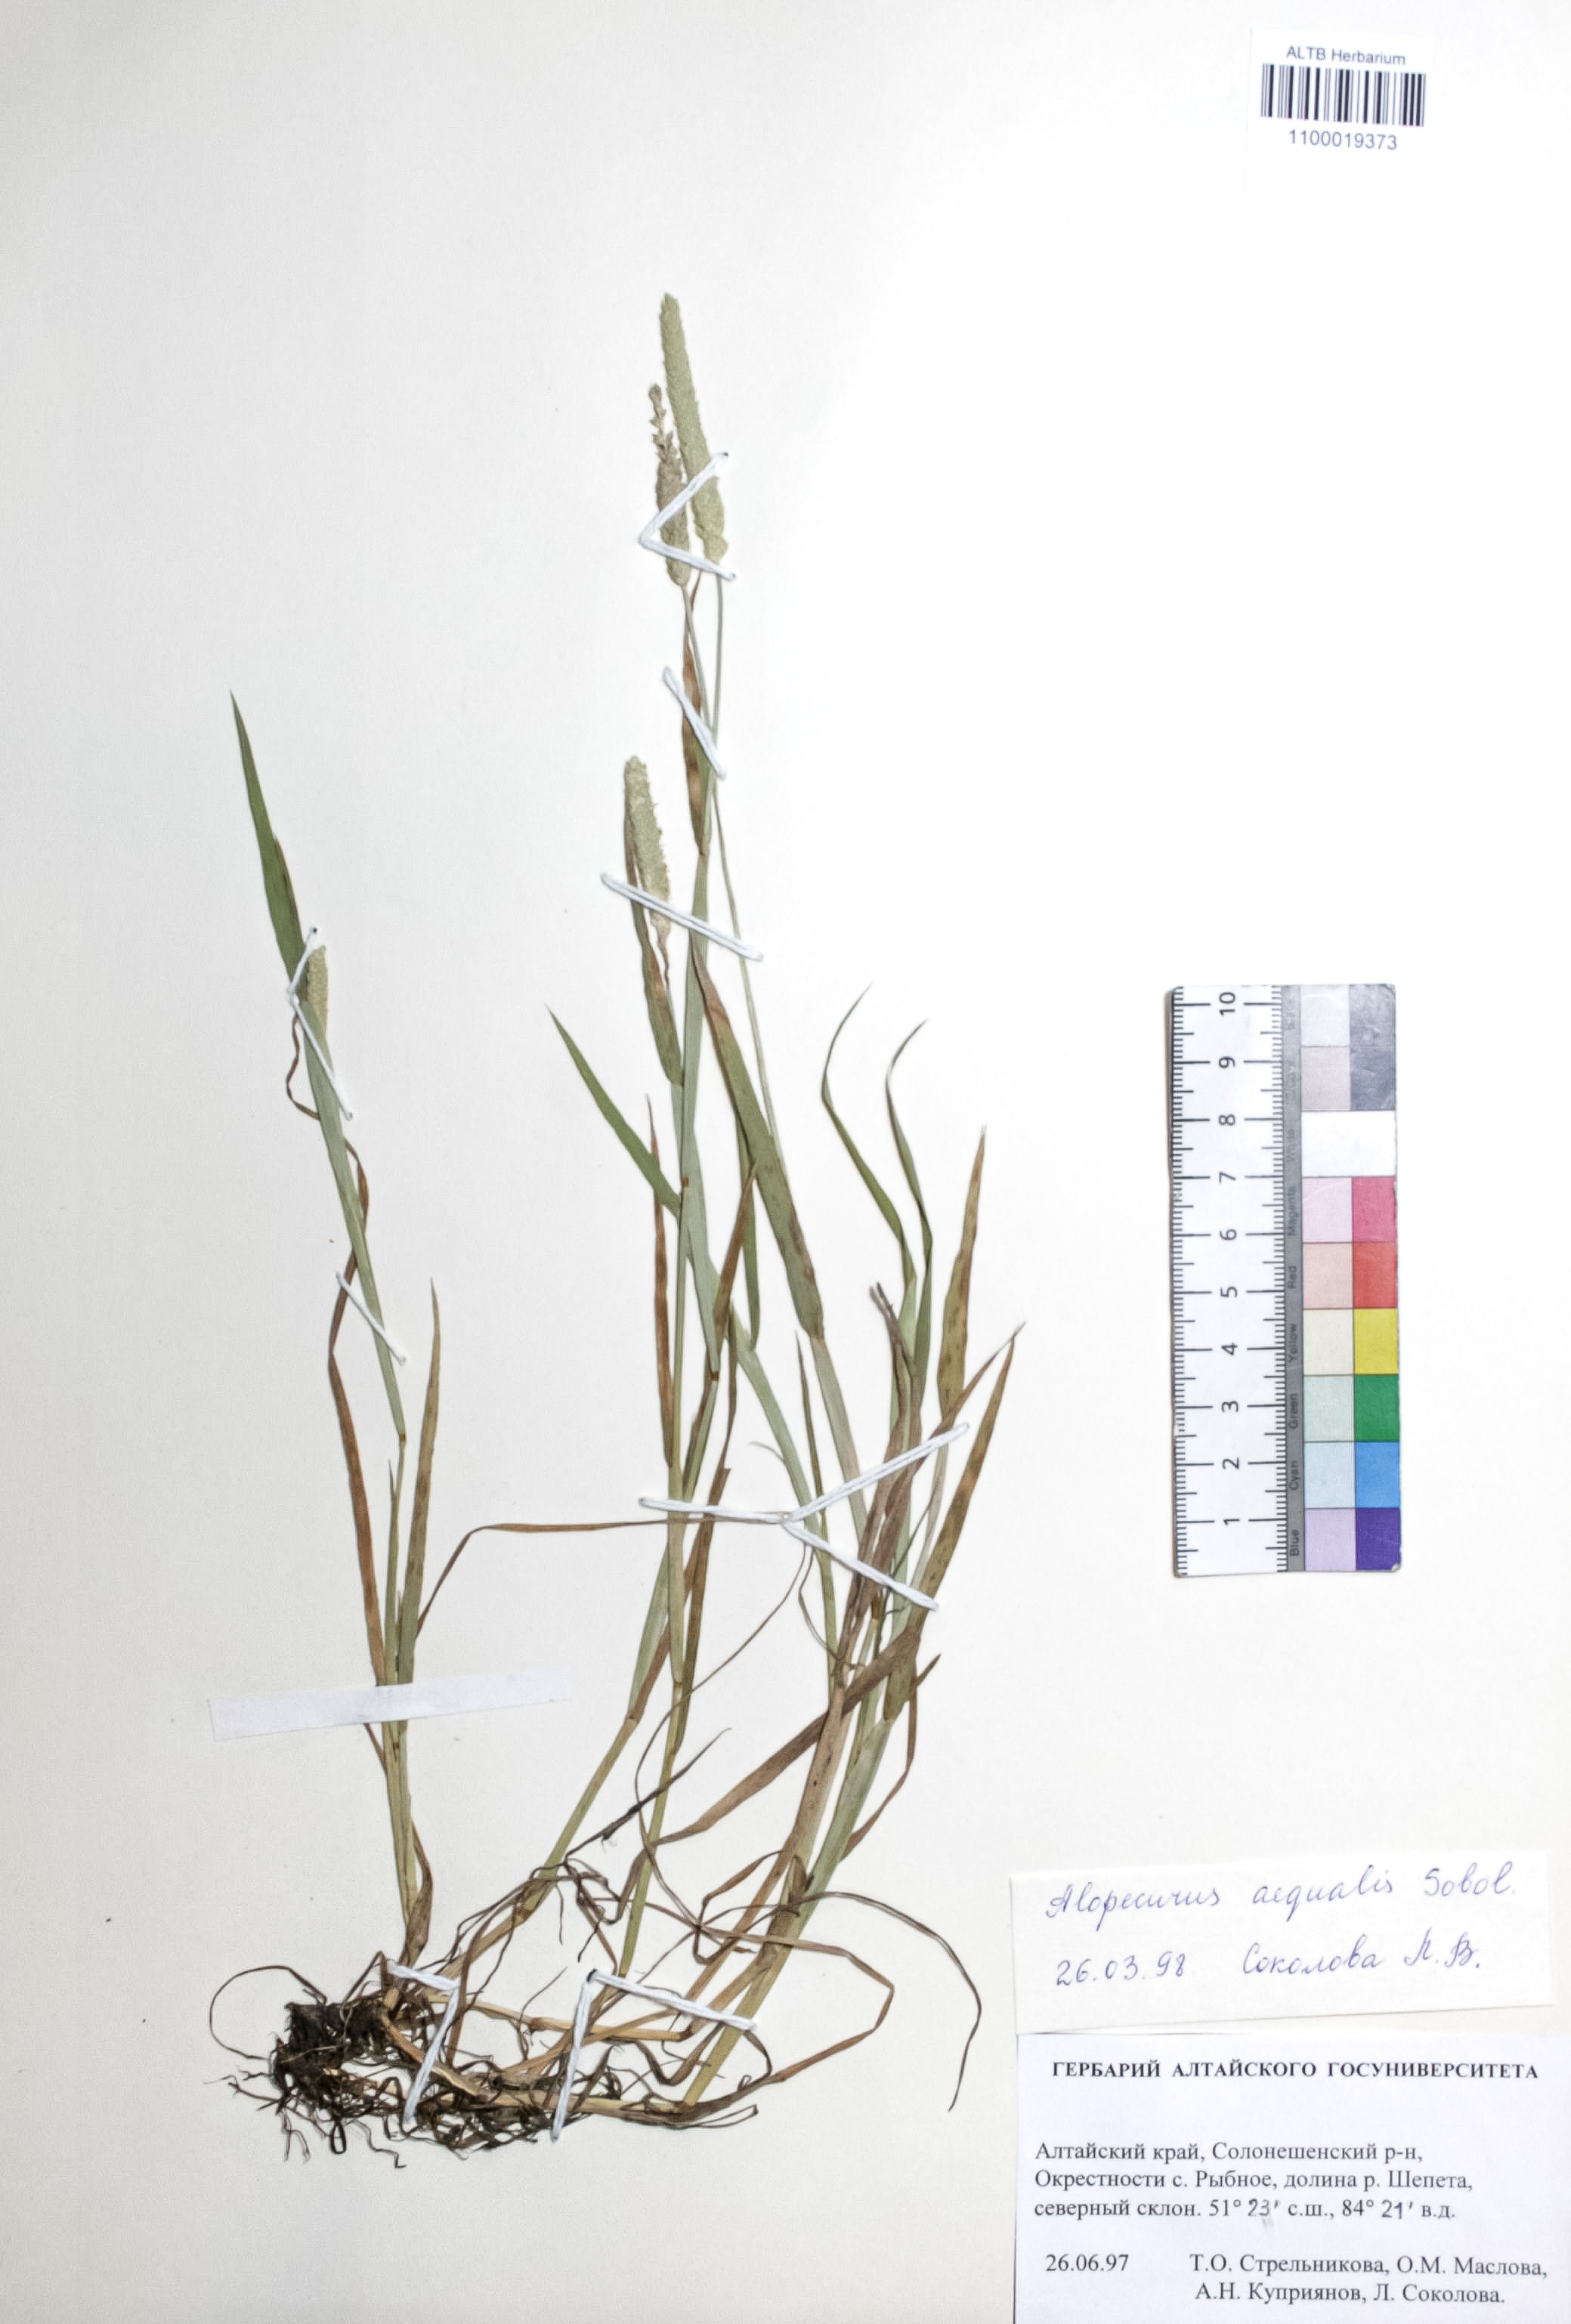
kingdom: Plantae
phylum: Tracheophyta
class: Liliopsida
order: Poales
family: Poaceae
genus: Alopecurus
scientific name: Alopecurus aequalis
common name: Orange foxtail
